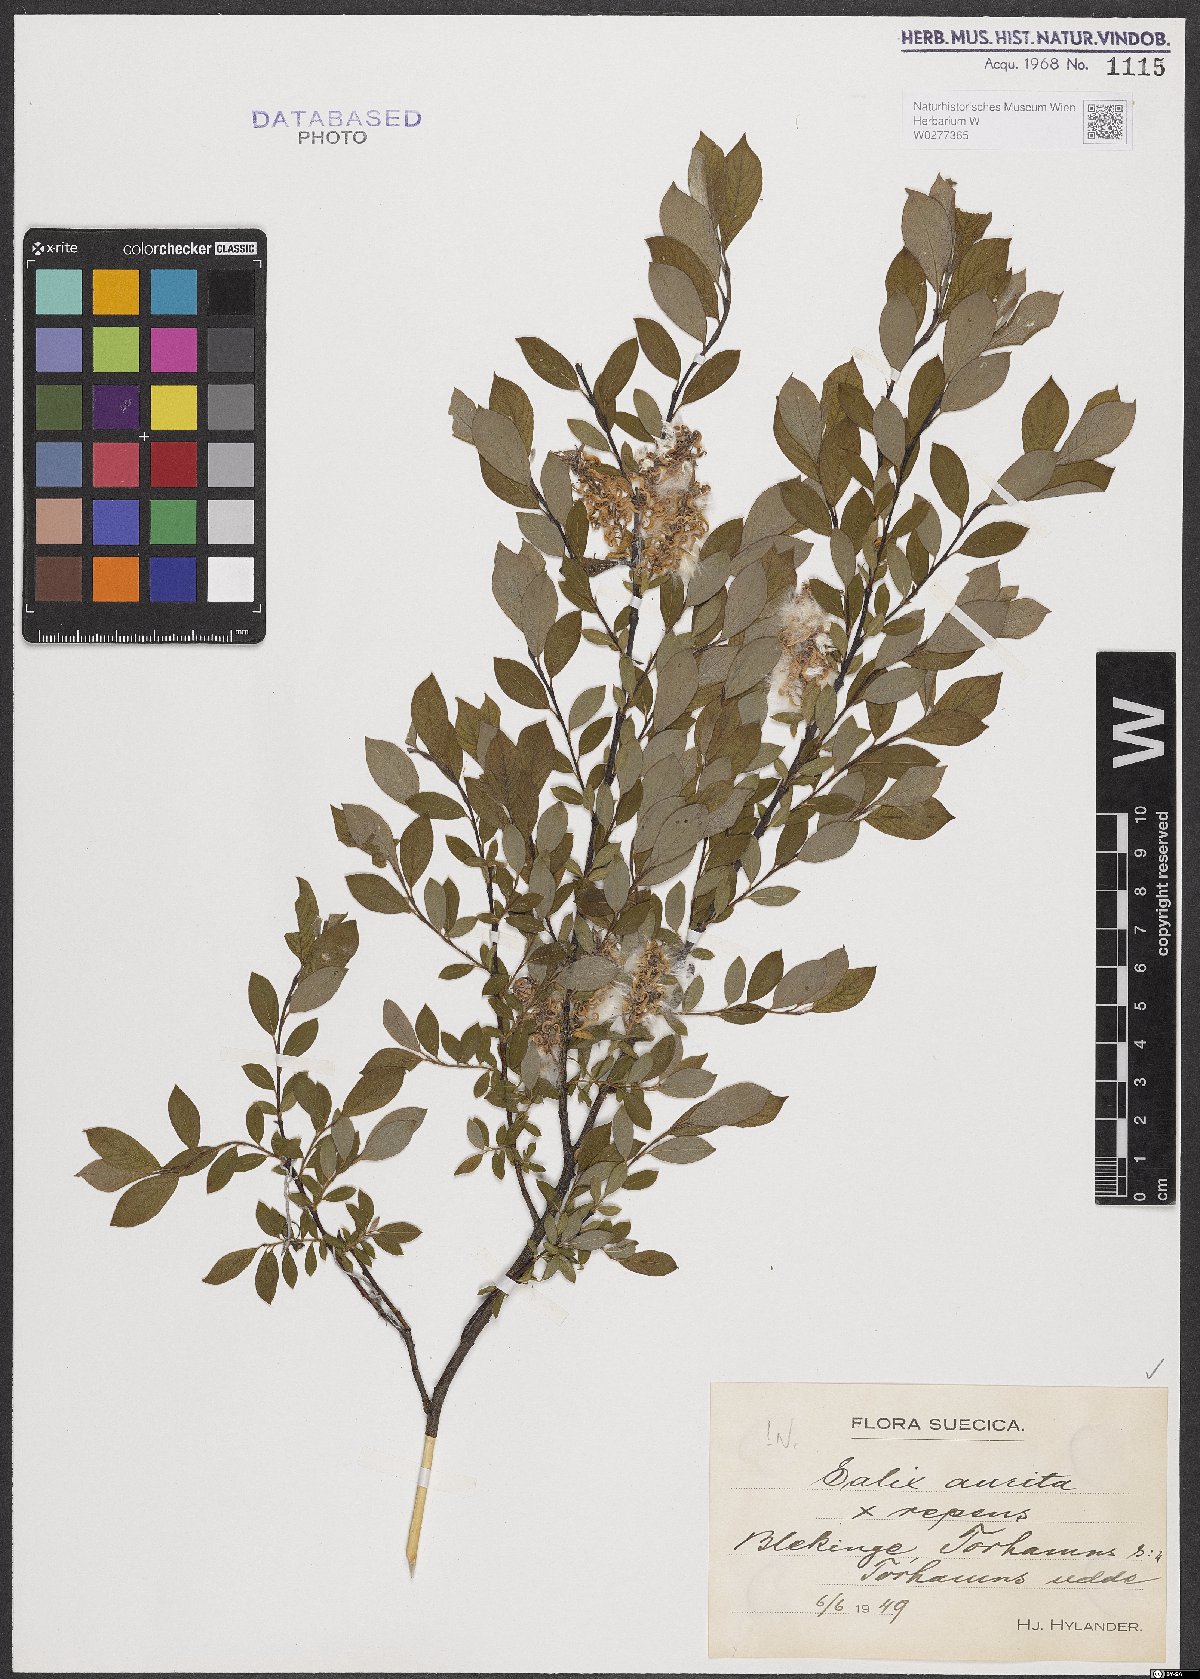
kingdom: Plantae
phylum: Tracheophyta
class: Magnoliopsida
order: Malpighiales
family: Salicaceae
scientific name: Salicaceae
